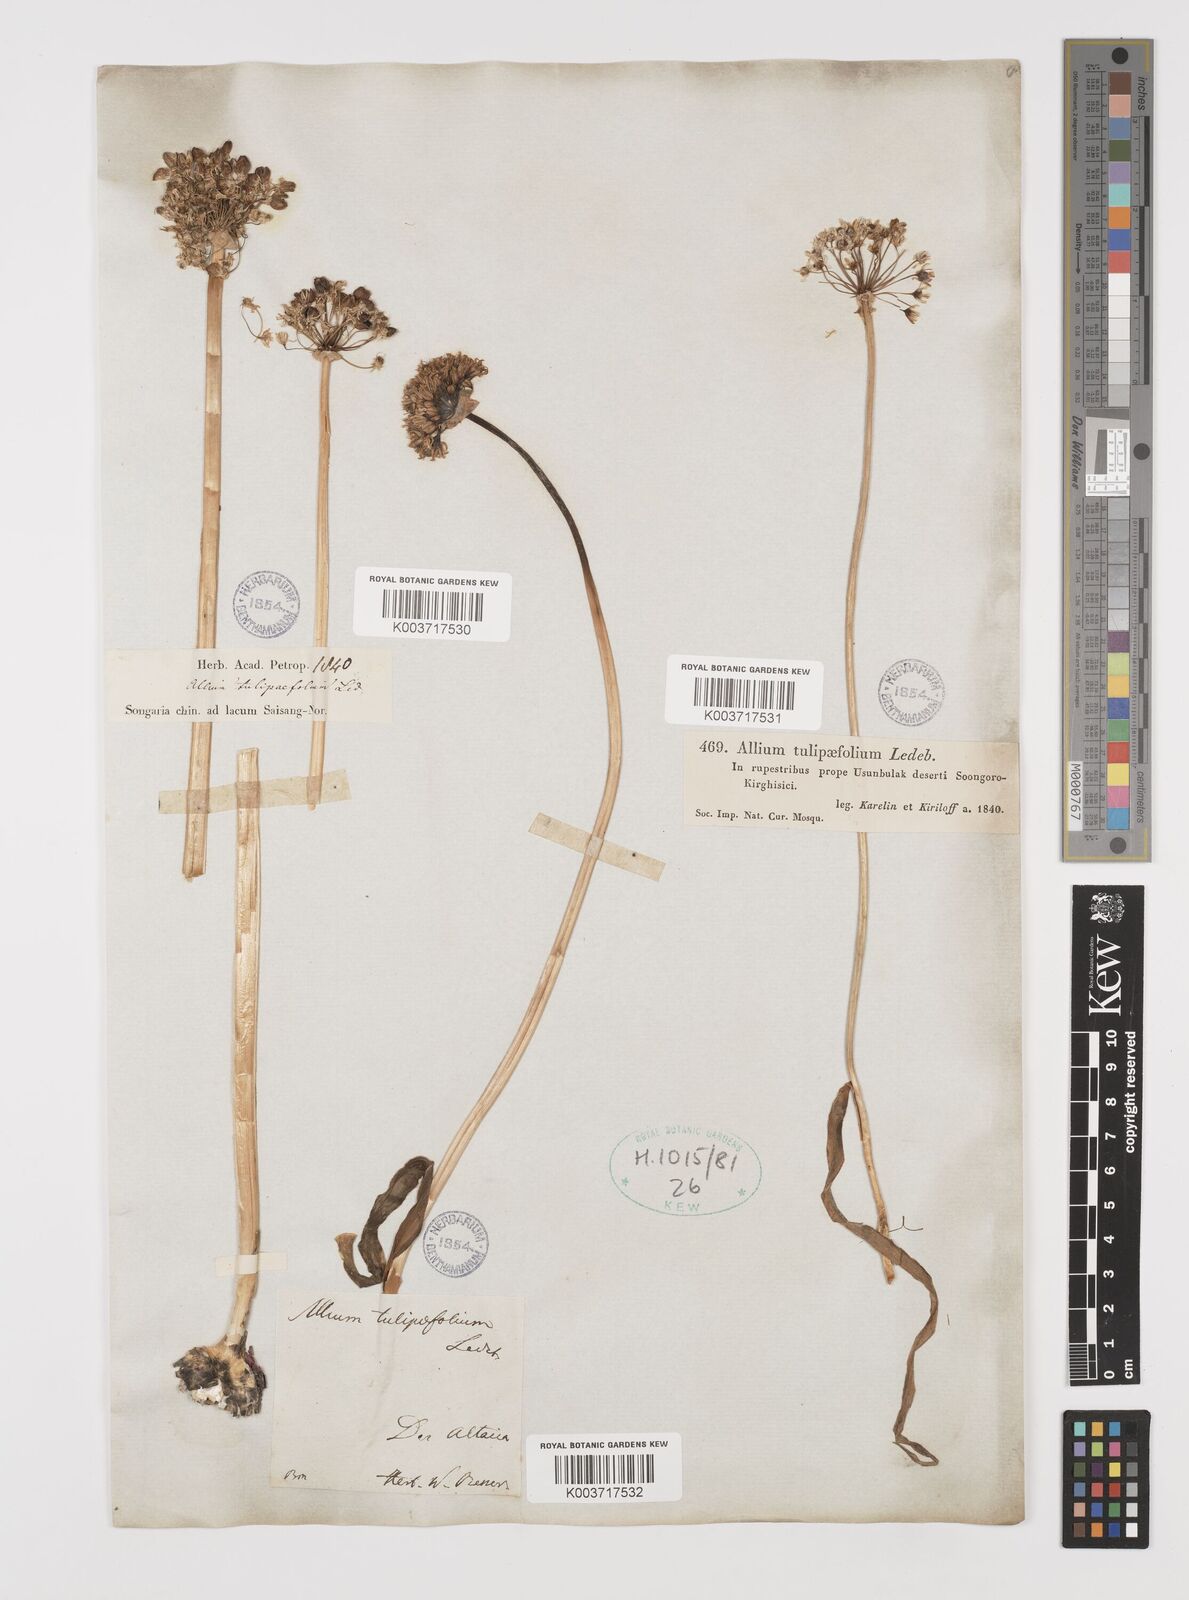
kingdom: Plantae
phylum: Tracheophyta
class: Liliopsida
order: Asparagales
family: Amaryllidaceae
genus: Allium
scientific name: Allium tulipifolium
